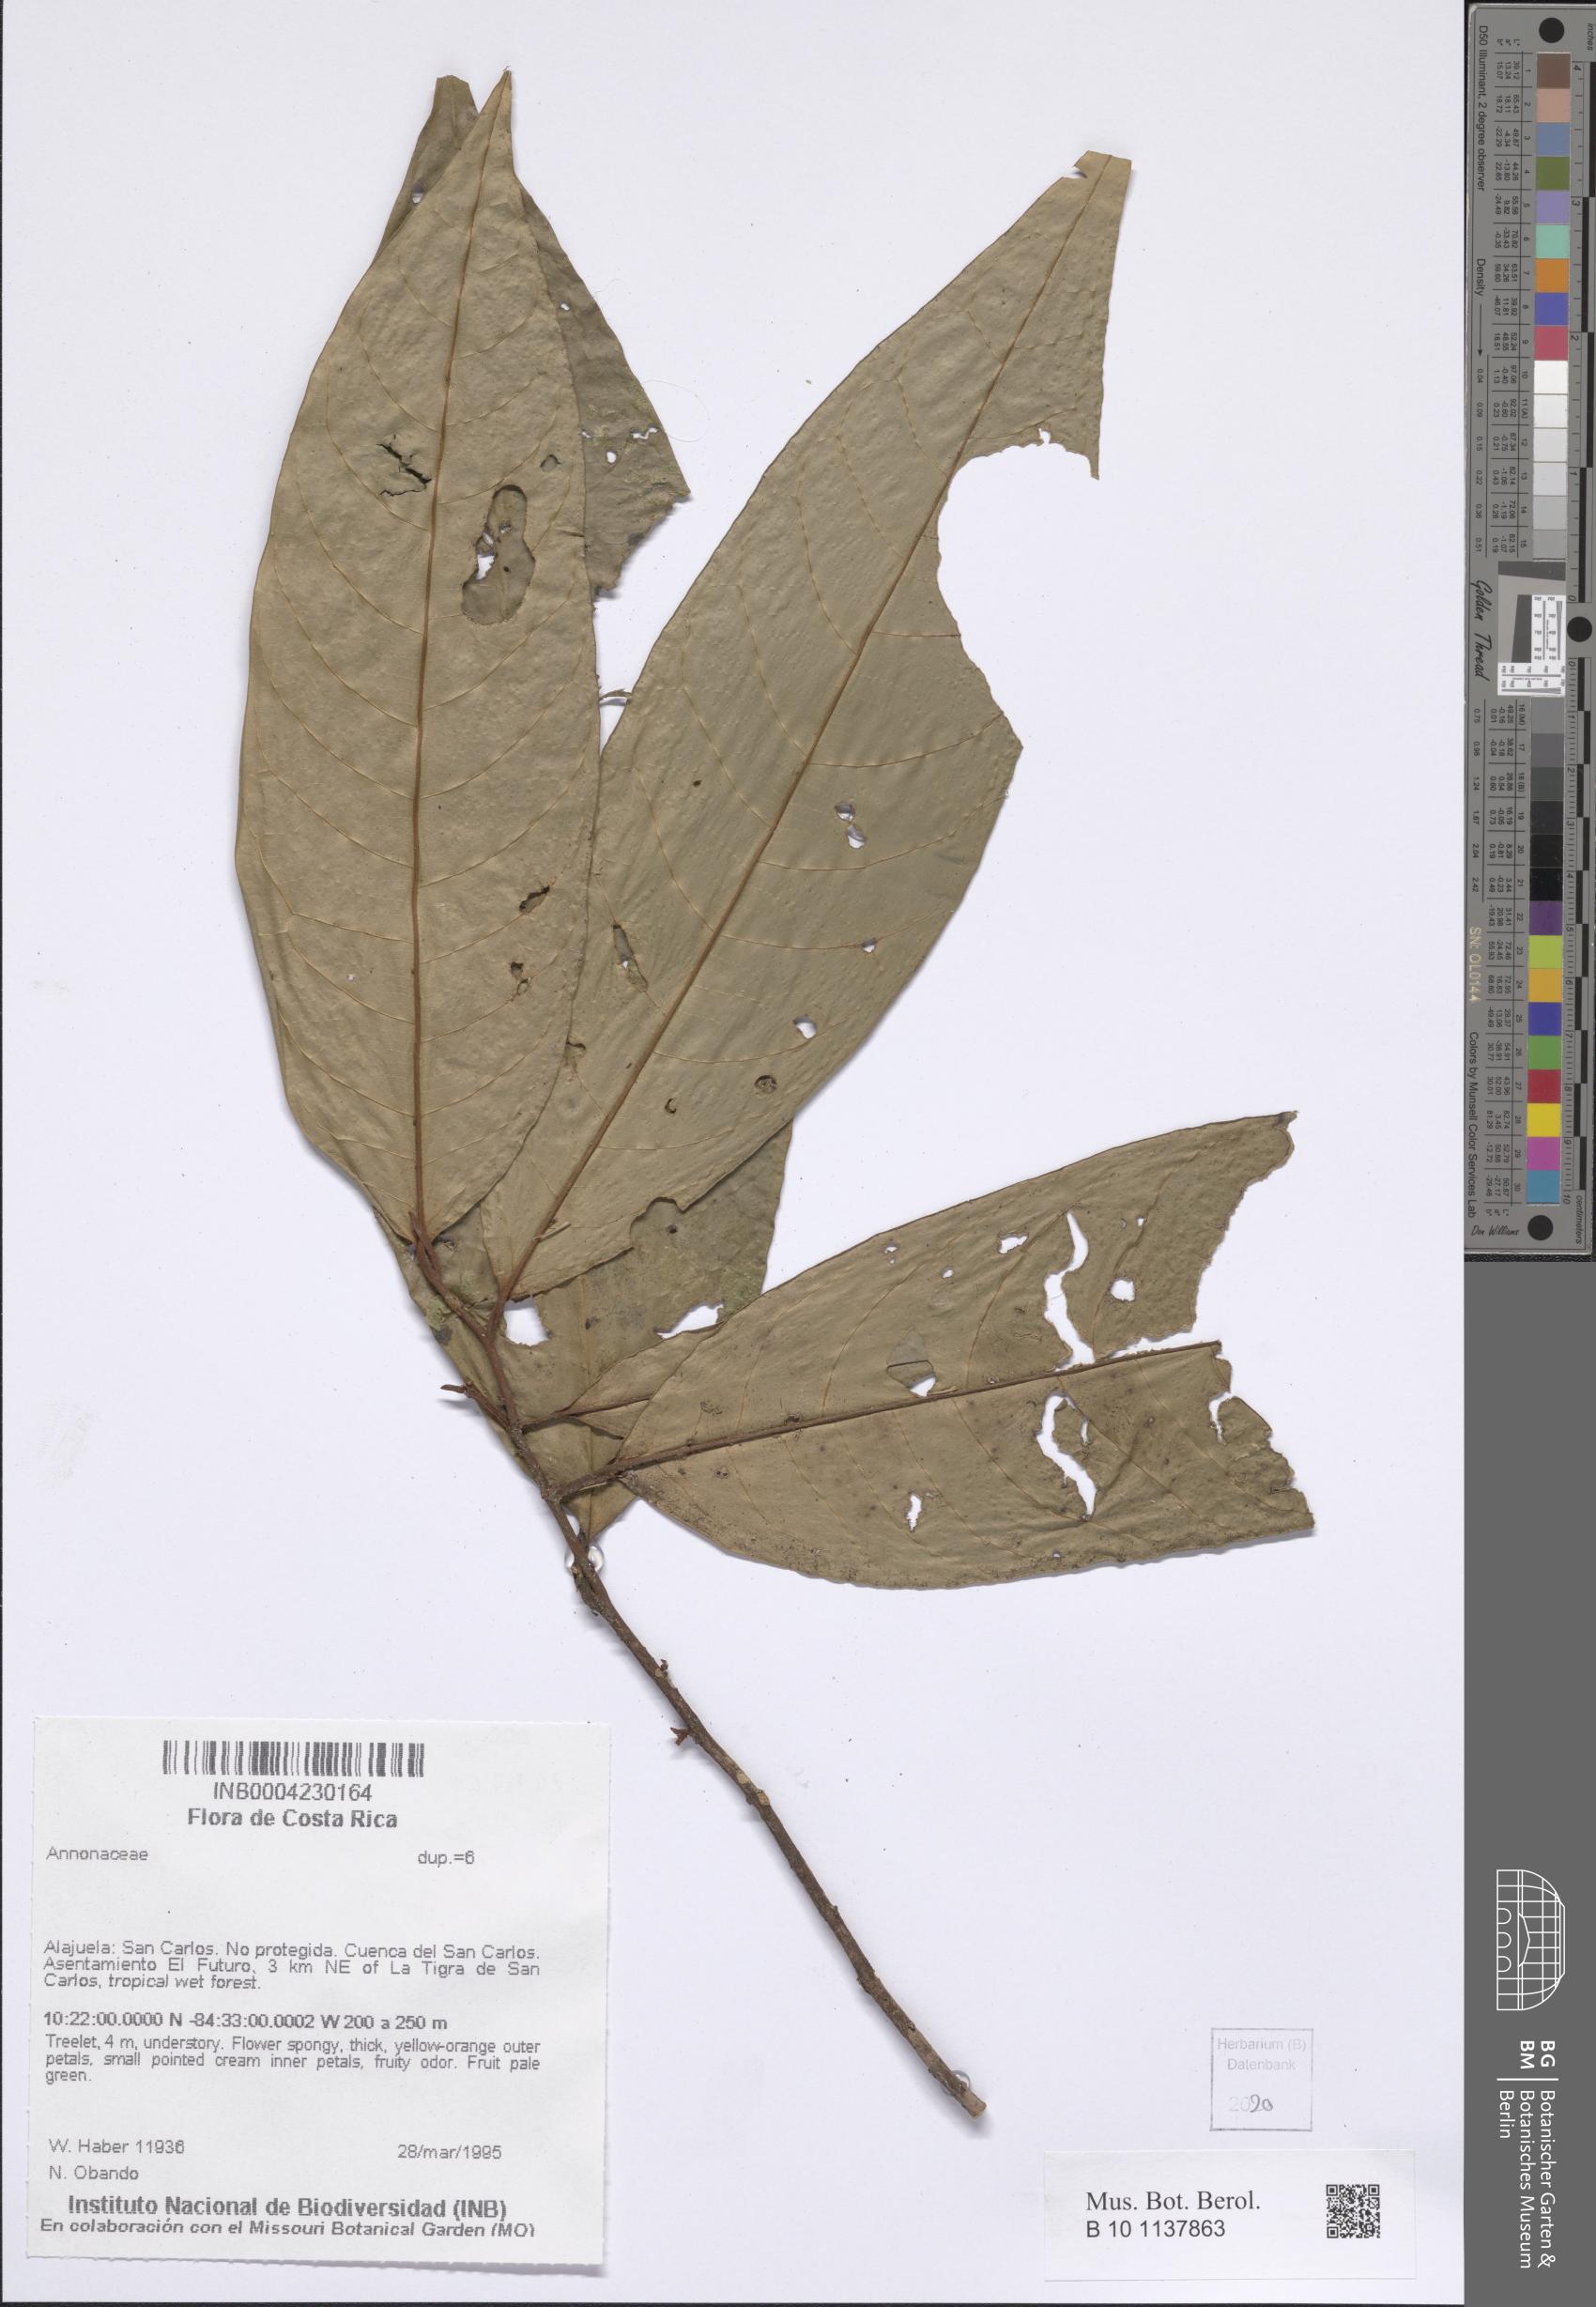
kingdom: Plantae
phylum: Tracheophyta
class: Magnoliopsida
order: Magnoliales
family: Annonaceae
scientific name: Annonaceae
